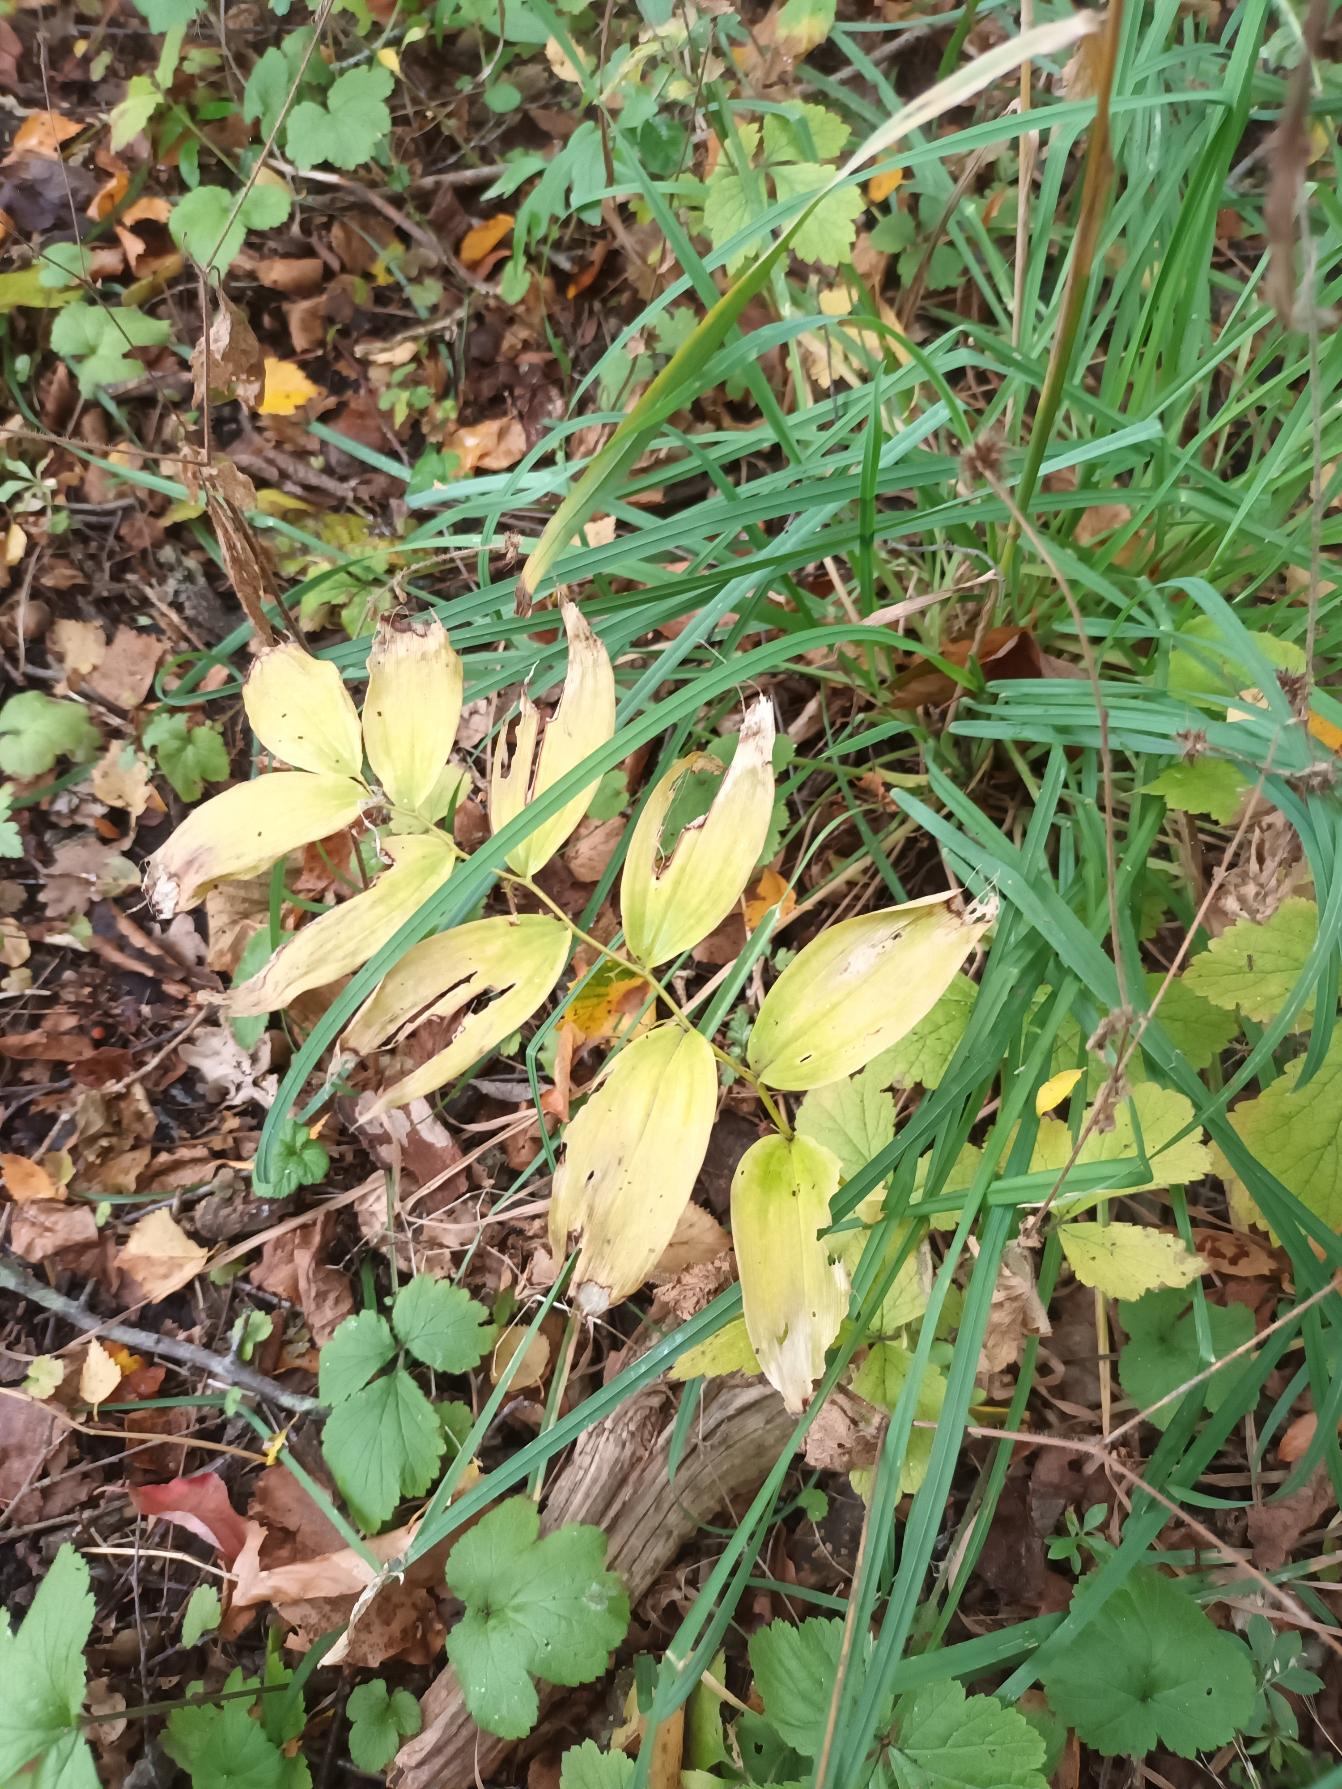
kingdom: Plantae
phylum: Tracheophyta
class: Liliopsida
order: Asparagales
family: Asparagaceae
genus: Polygonatum
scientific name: Polygonatum multiflorum
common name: Stor konval
